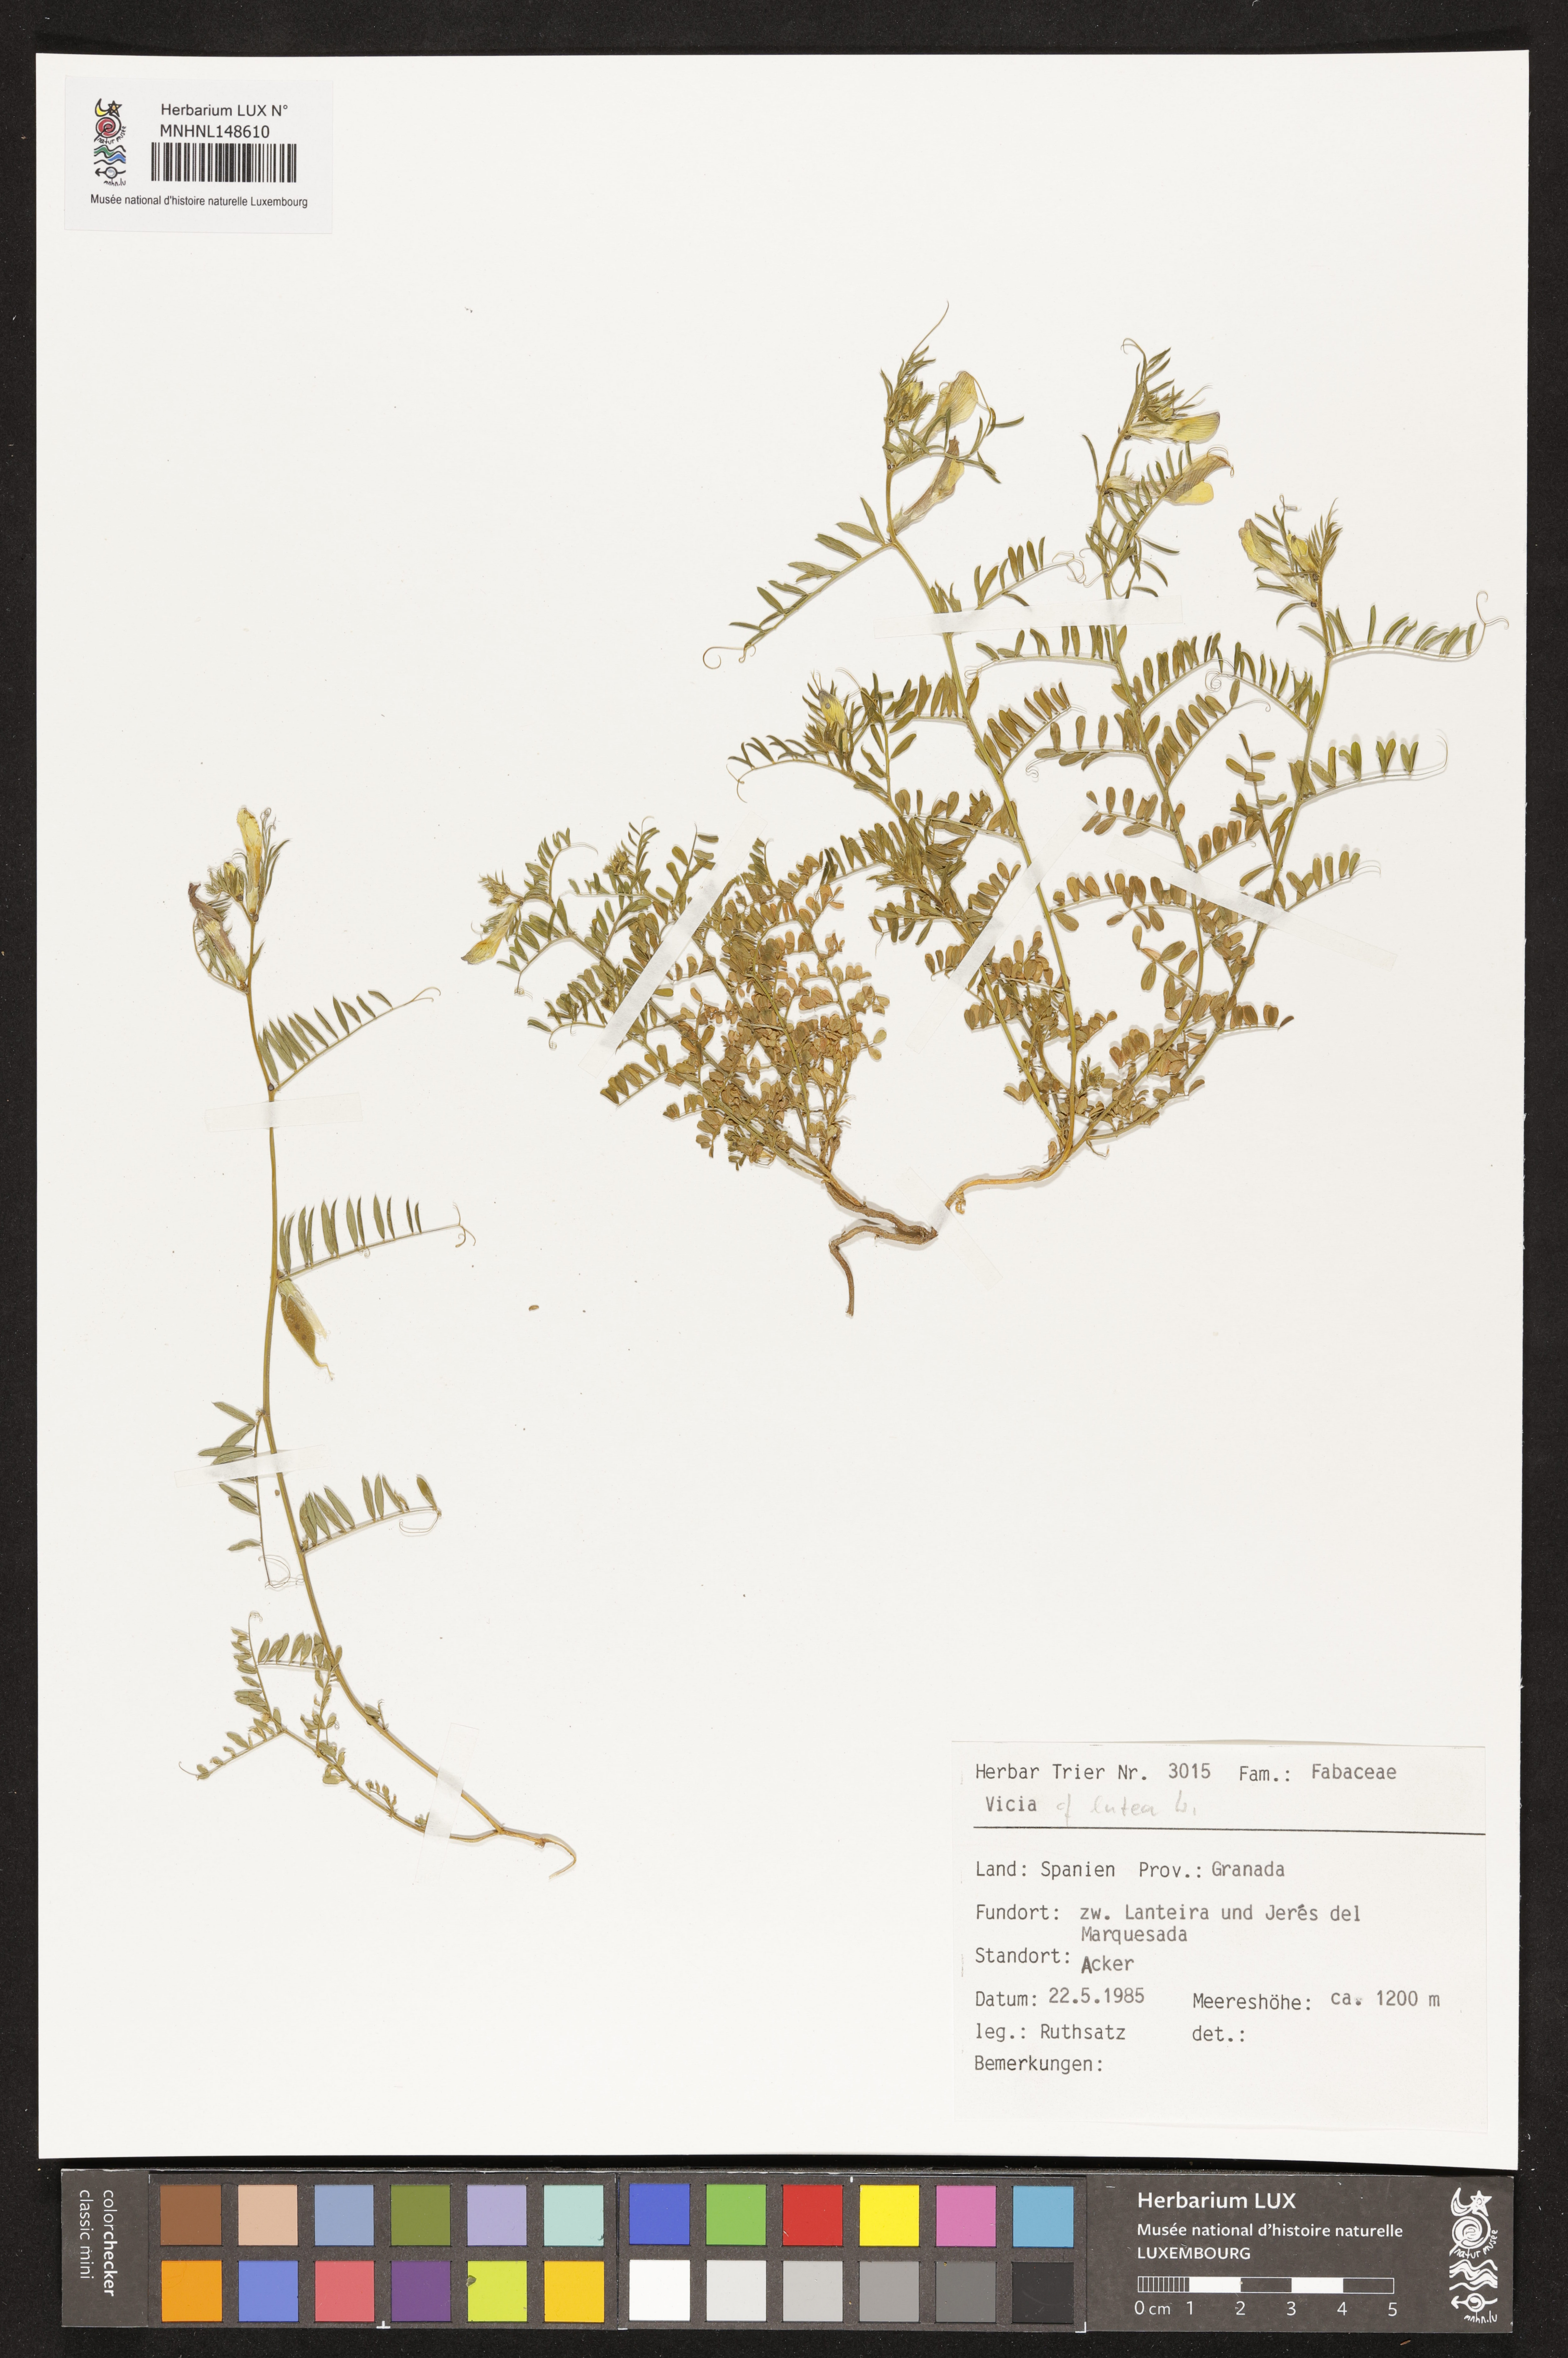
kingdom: Plantae
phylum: Tracheophyta
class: Magnoliopsida
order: Fabales
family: Fabaceae
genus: Vicia
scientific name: Vicia lutea
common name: Smooth yellow vetch
